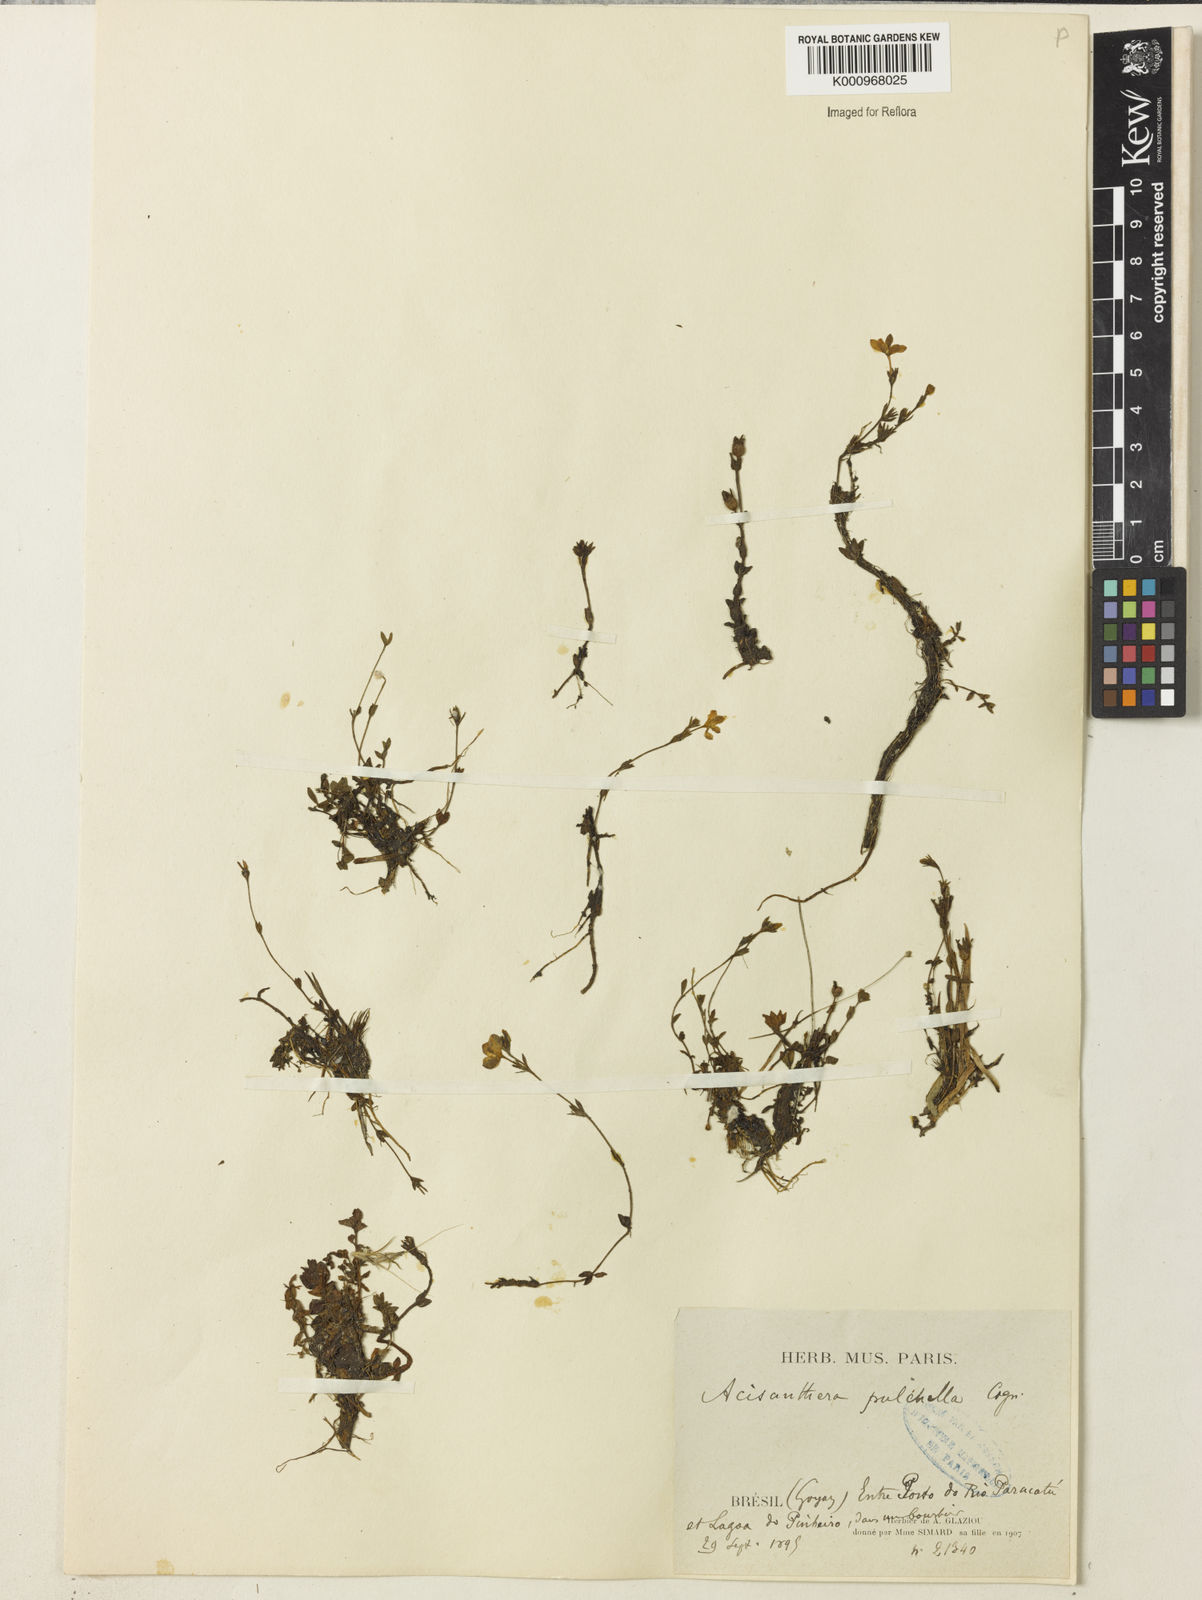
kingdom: Plantae
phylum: Tracheophyta
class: Magnoliopsida
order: Myrtales
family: Melastomataceae
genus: Acisanthera
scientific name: Acisanthera pulchella
